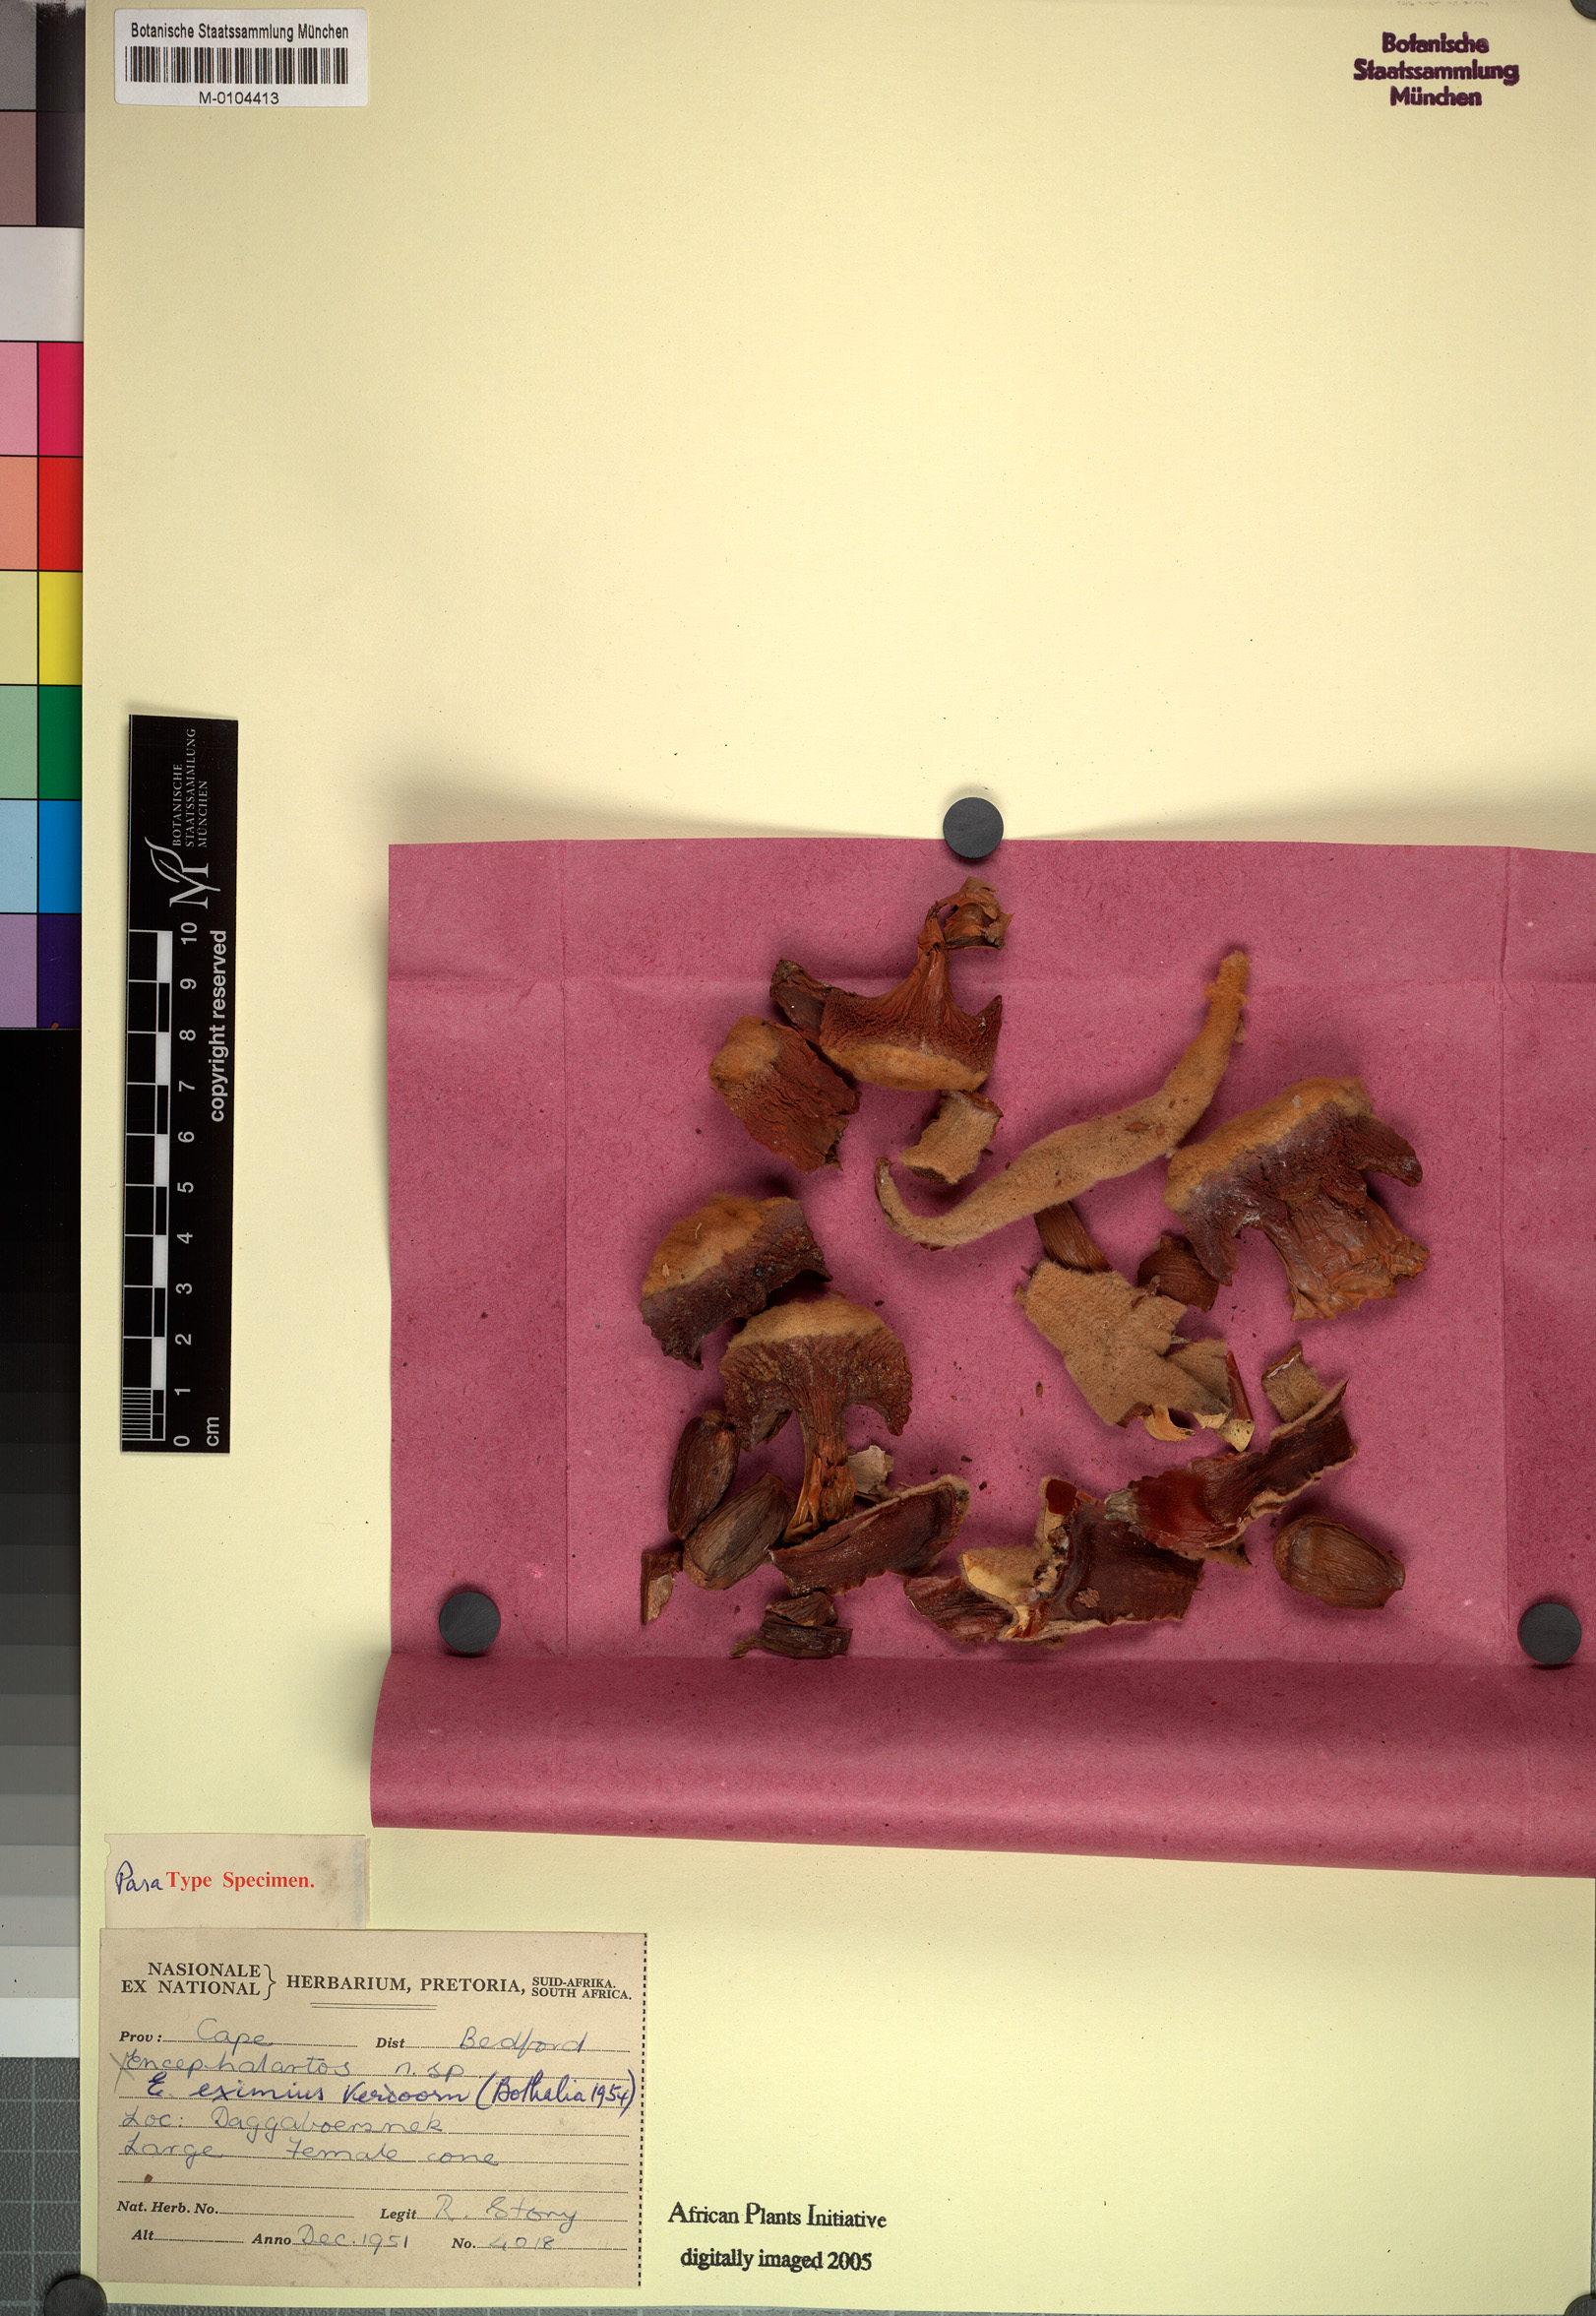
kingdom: Plantae
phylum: Tracheophyta
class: Cycadopsida
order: Cycadales
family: Zamiaceae
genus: Encephalartos
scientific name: Encephalartos cycadifolius
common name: Winterberg cycad
